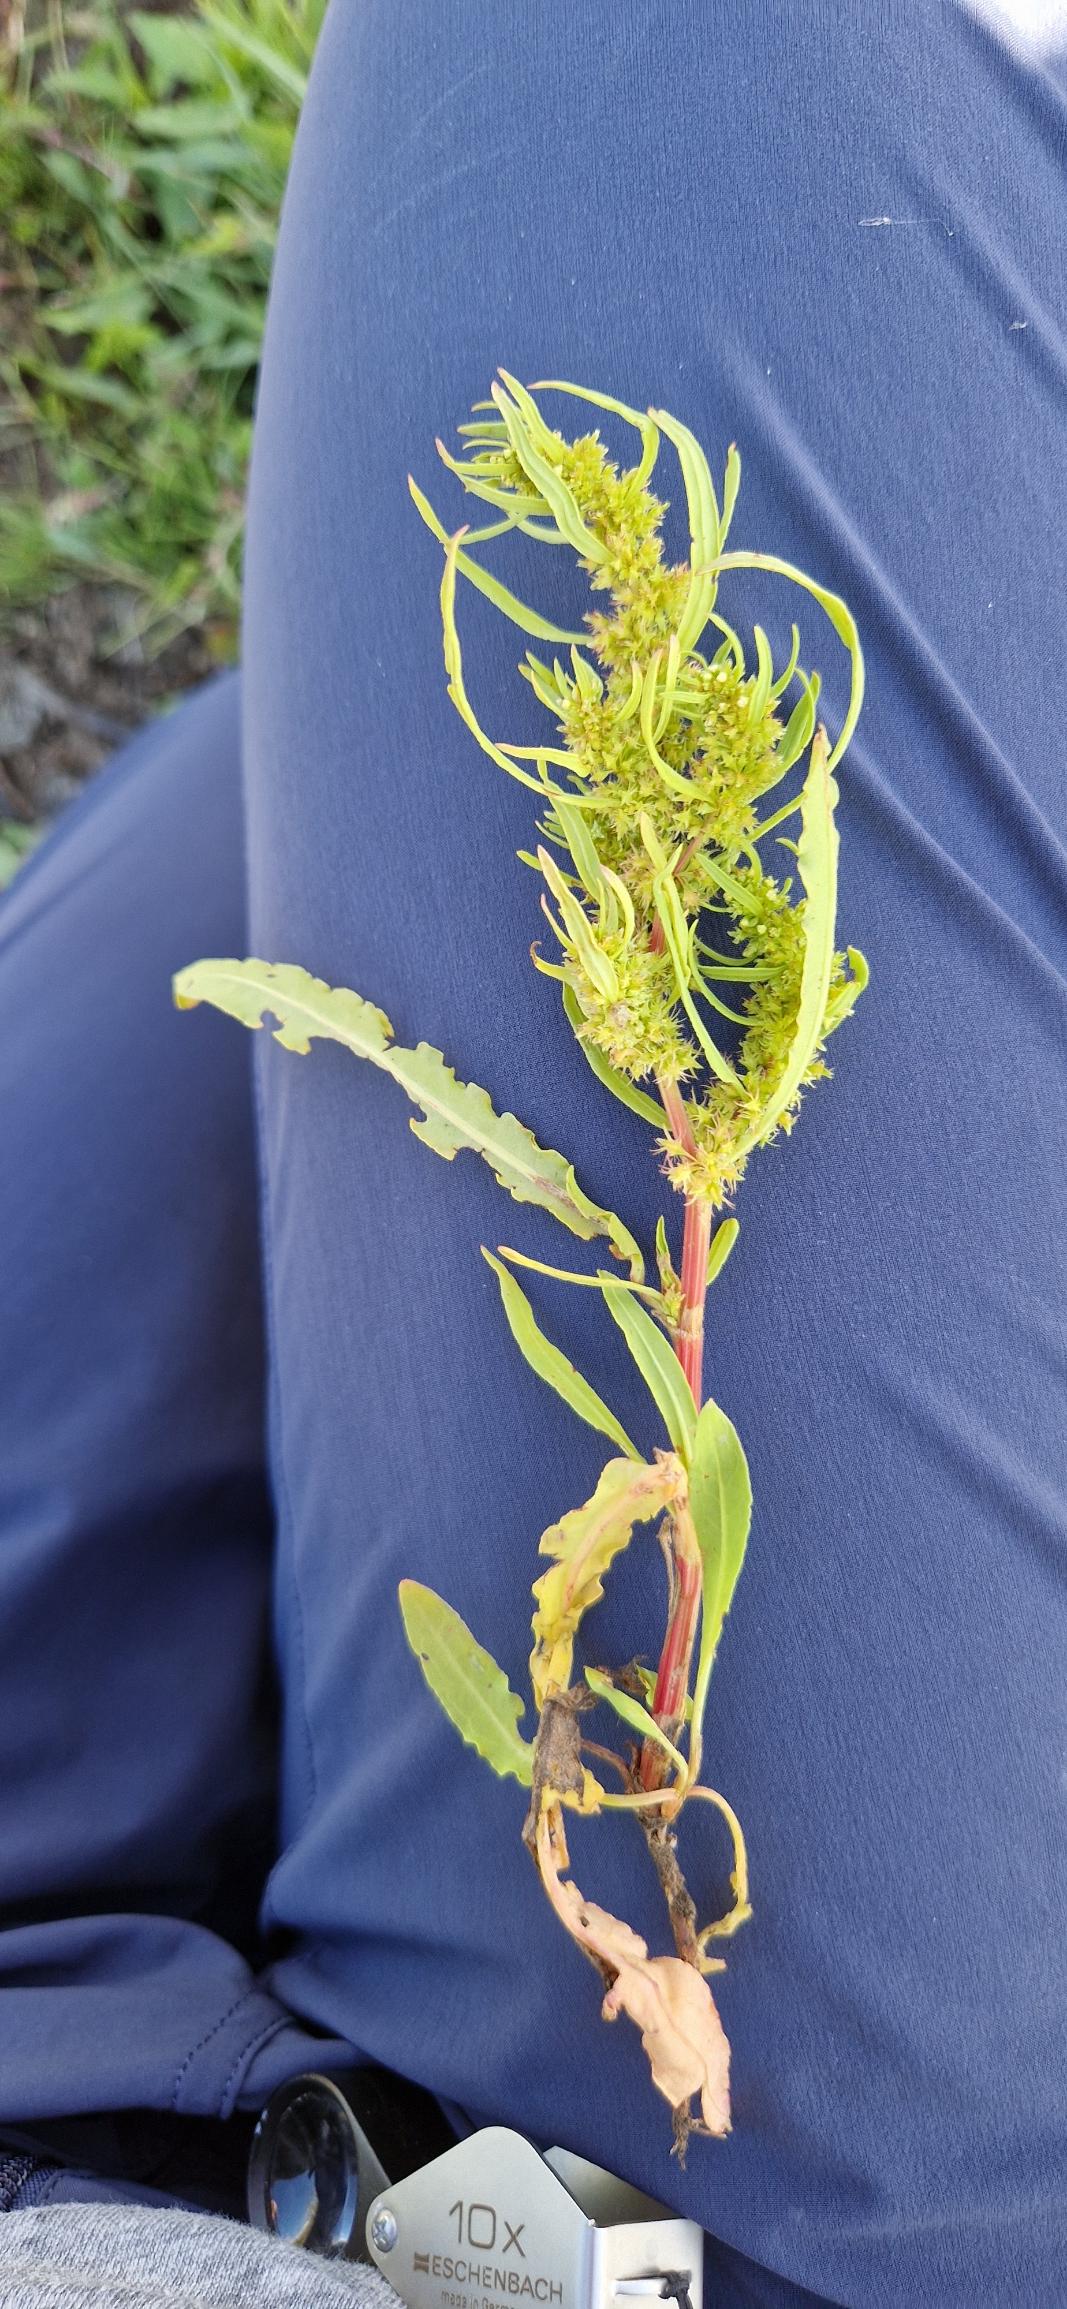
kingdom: Plantae
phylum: Tracheophyta
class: Magnoliopsida
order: Caryophyllales
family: Polygonaceae
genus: Rumex
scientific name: Rumex maritimus
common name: Strand-skræppe
